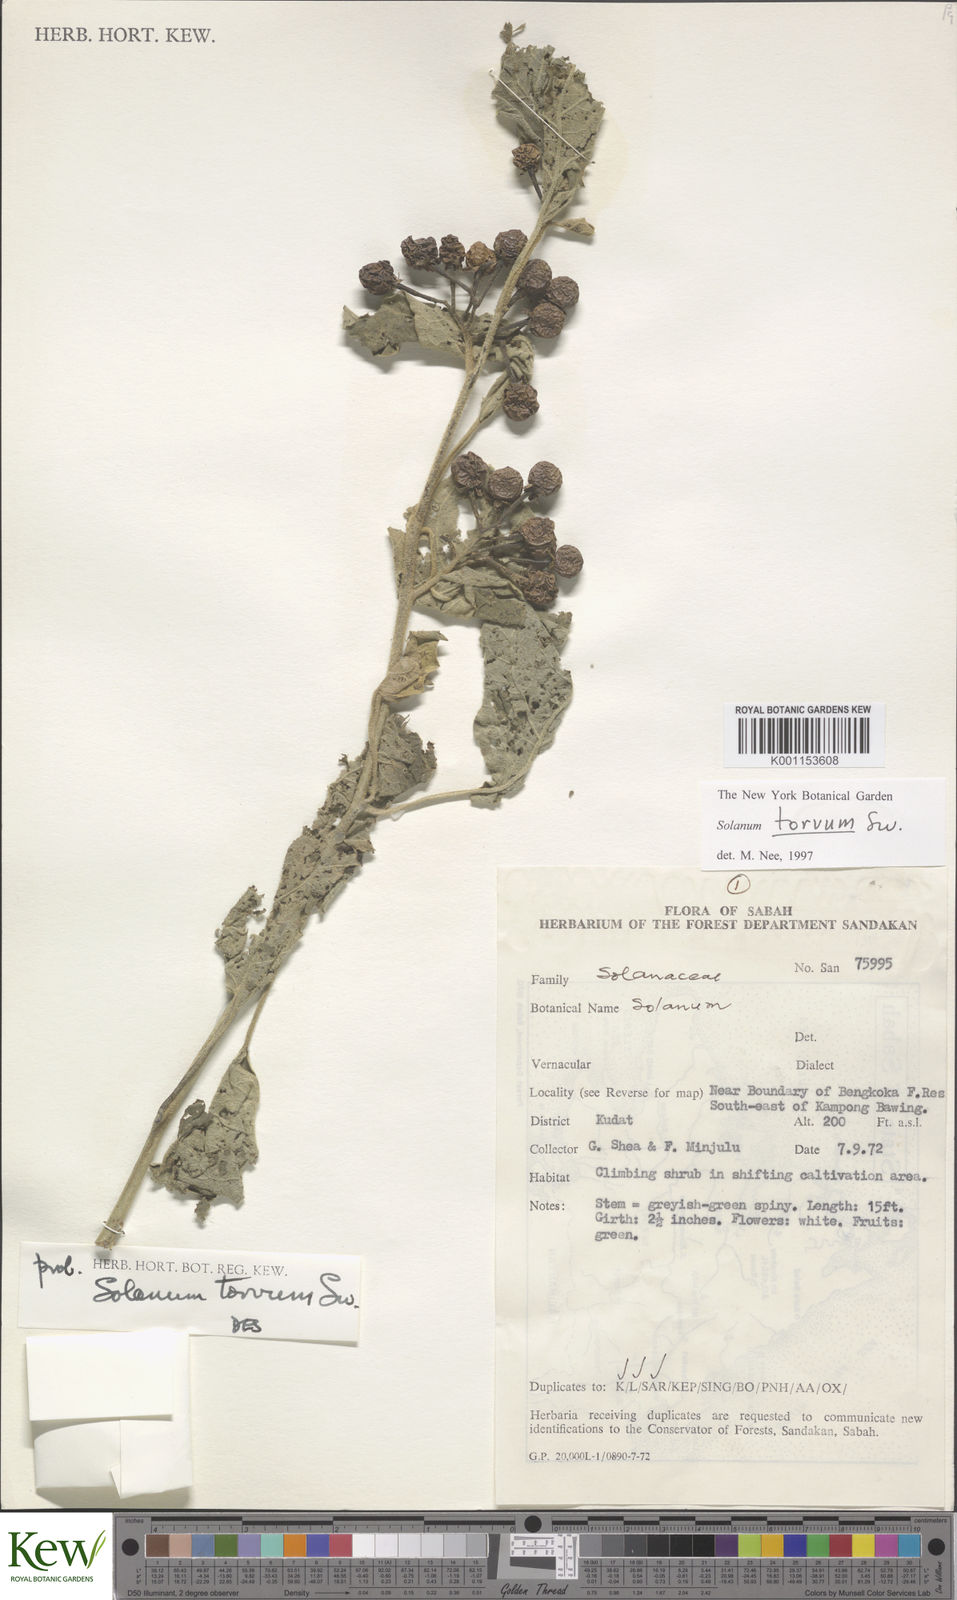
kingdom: Plantae
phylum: Tracheophyta
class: Magnoliopsida
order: Solanales
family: Solanaceae
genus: Solanum
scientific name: Solanum torvum
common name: Turkey berry
